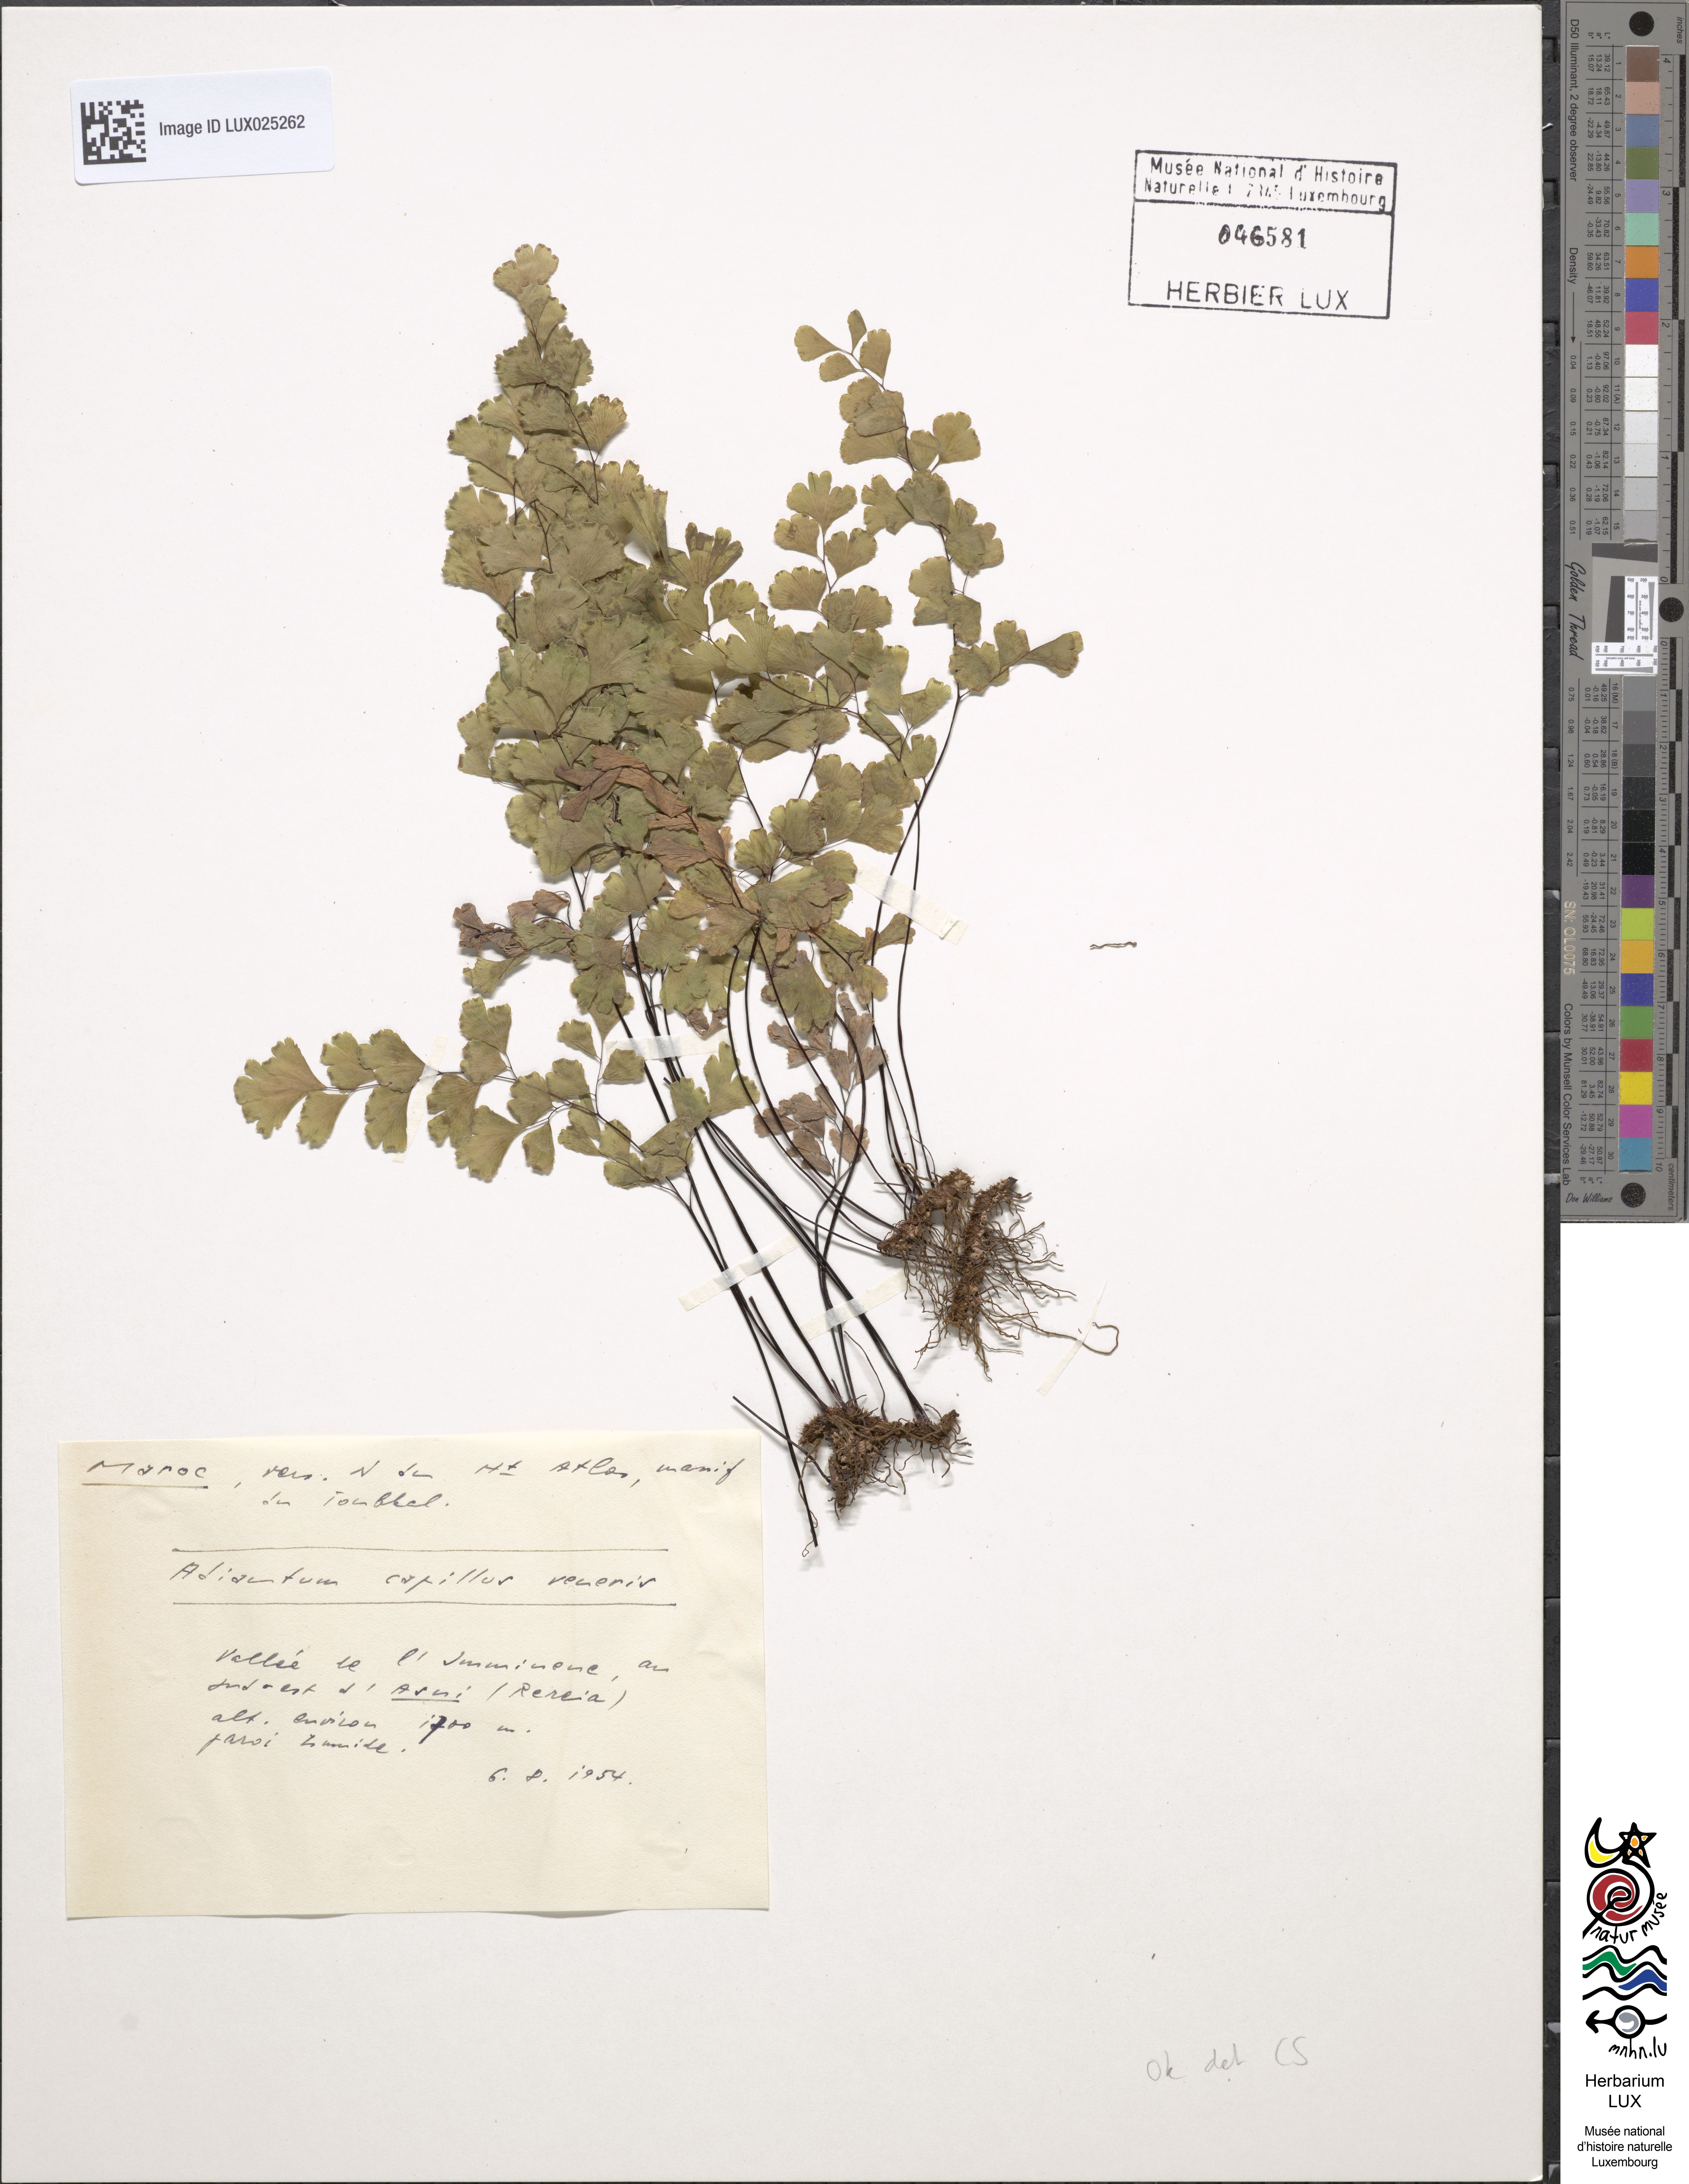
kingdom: Plantae
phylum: Tracheophyta
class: Polypodiopsida
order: Polypodiales
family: Pteridaceae
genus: Adiantum
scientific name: Adiantum capillus-veneris
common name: Maidenhair fern
